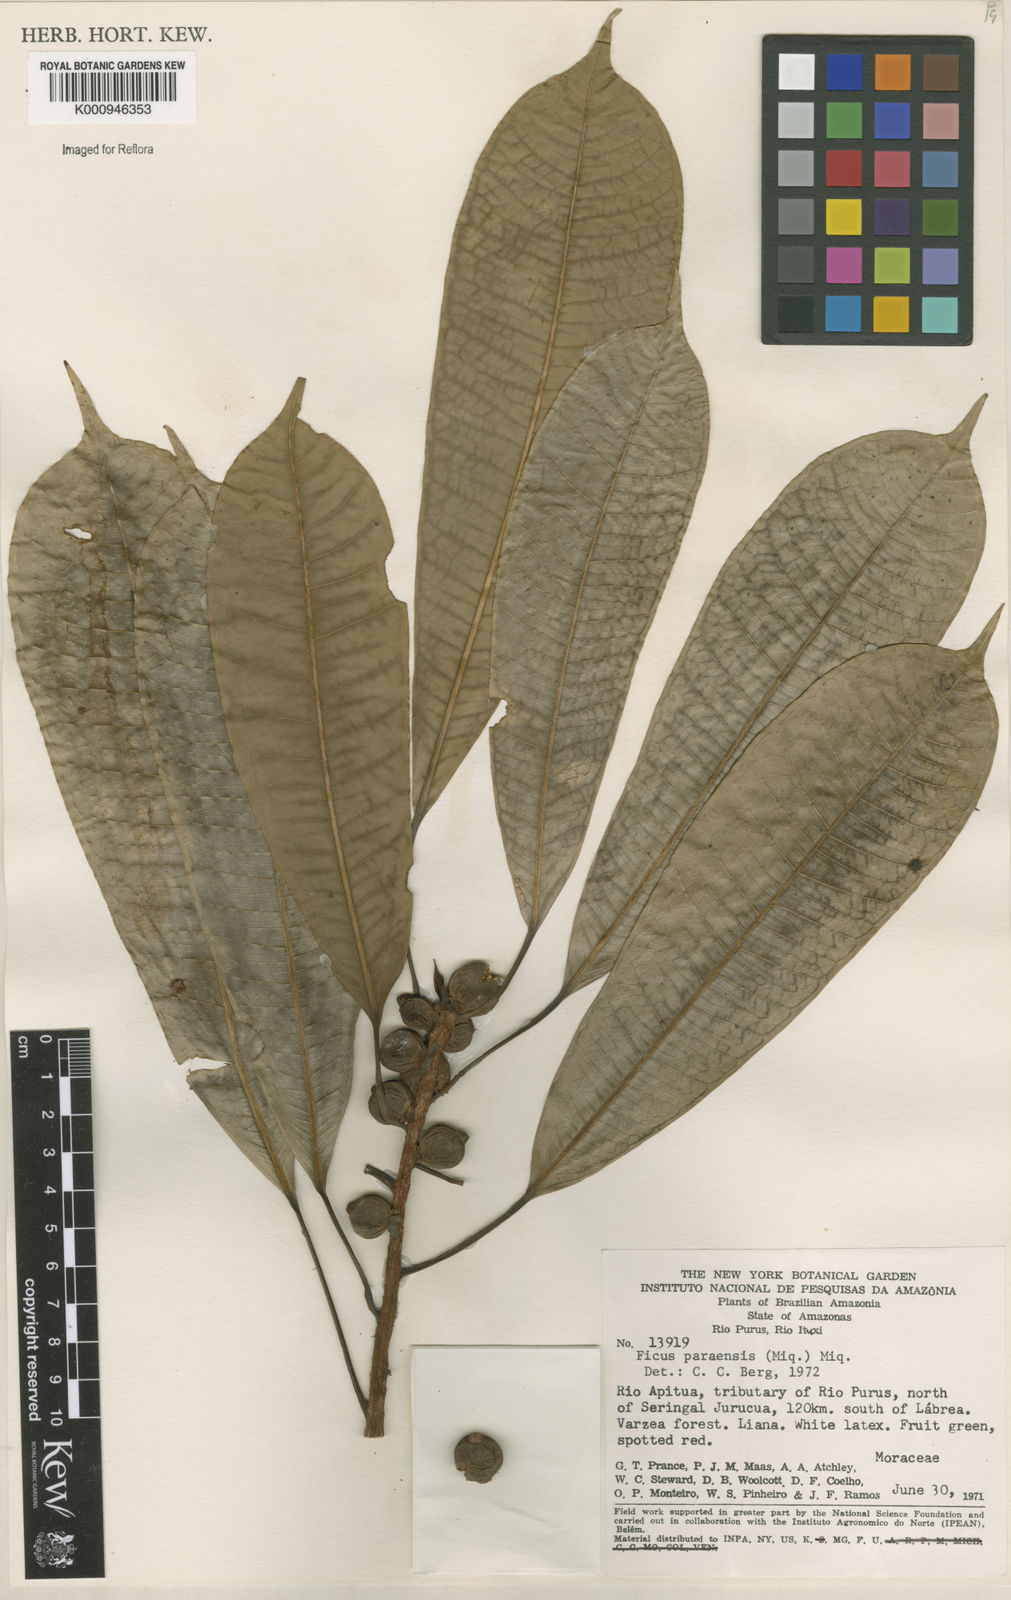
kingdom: Plantae
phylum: Tracheophyta
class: Magnoliopsida
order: Rosales
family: Moraceae
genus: Ficus
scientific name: Ficus paraensis
